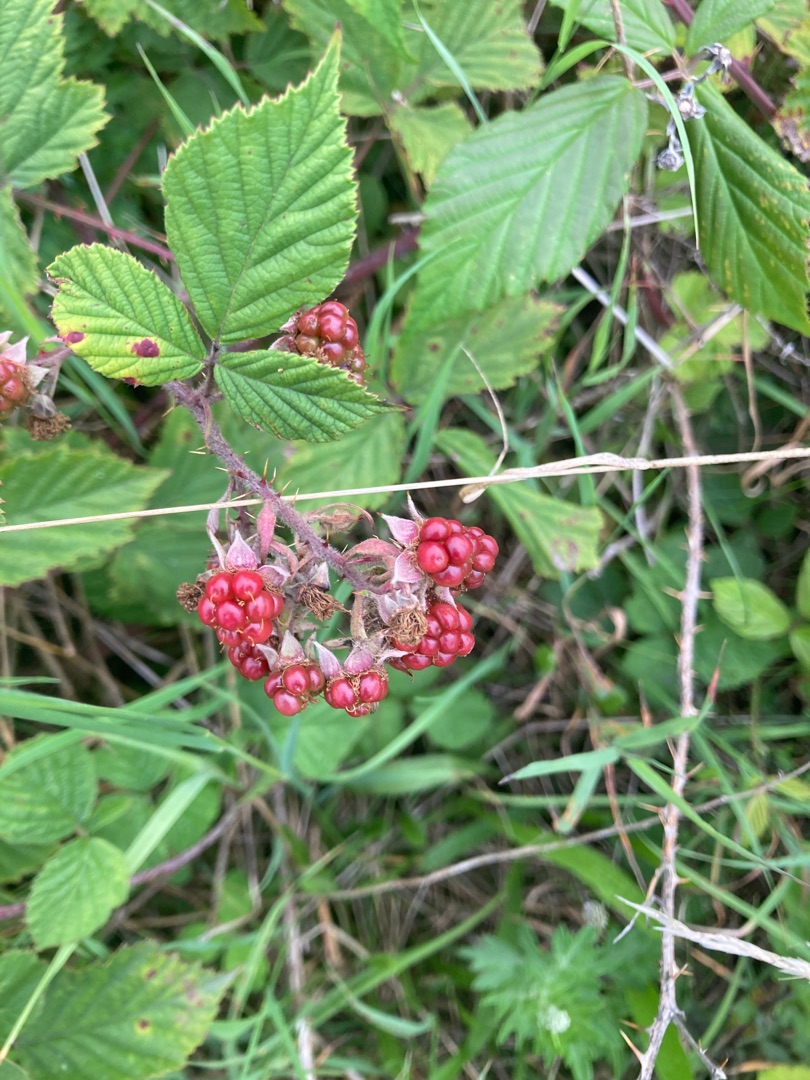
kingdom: Plantae
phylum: Tracheophyta
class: Magnoliopsida
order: Rosales
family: Rosaceae
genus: Rubus
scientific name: Rubus
